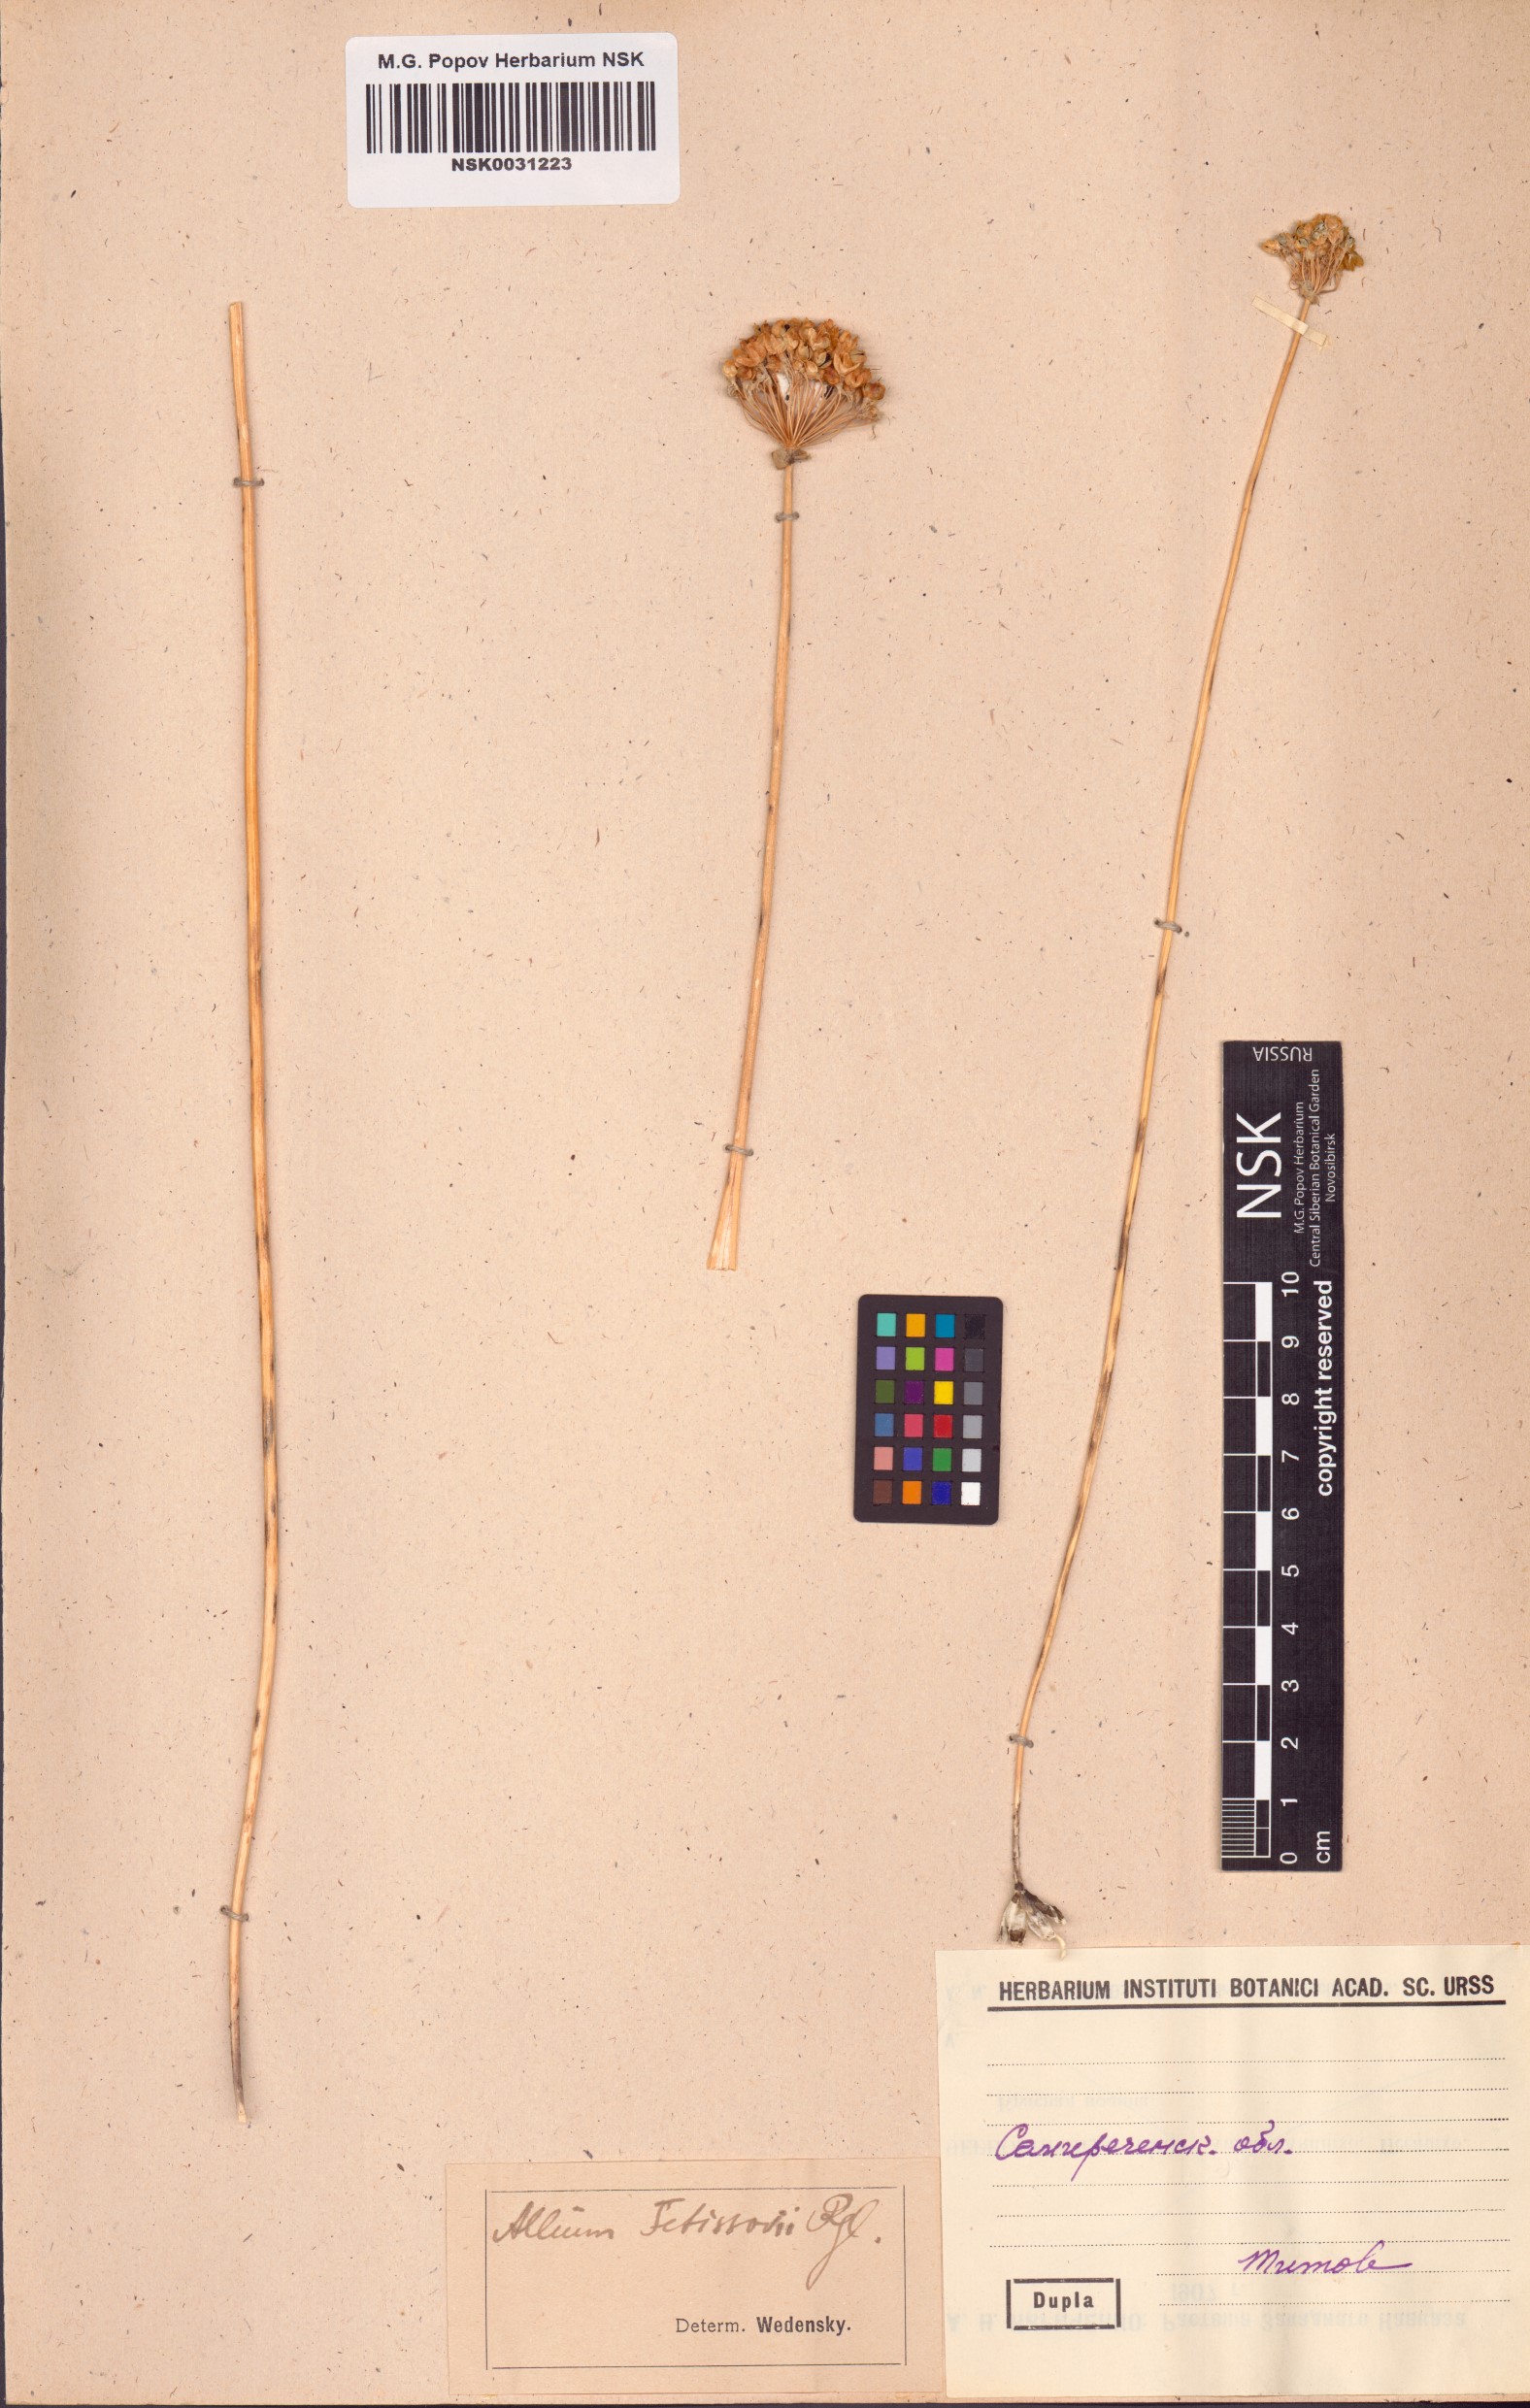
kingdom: Plantae
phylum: Tracheophyta
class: Liliopsida
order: Asparagales
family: Amaryllidaceae
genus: Allium
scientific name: Allium fetisowii
